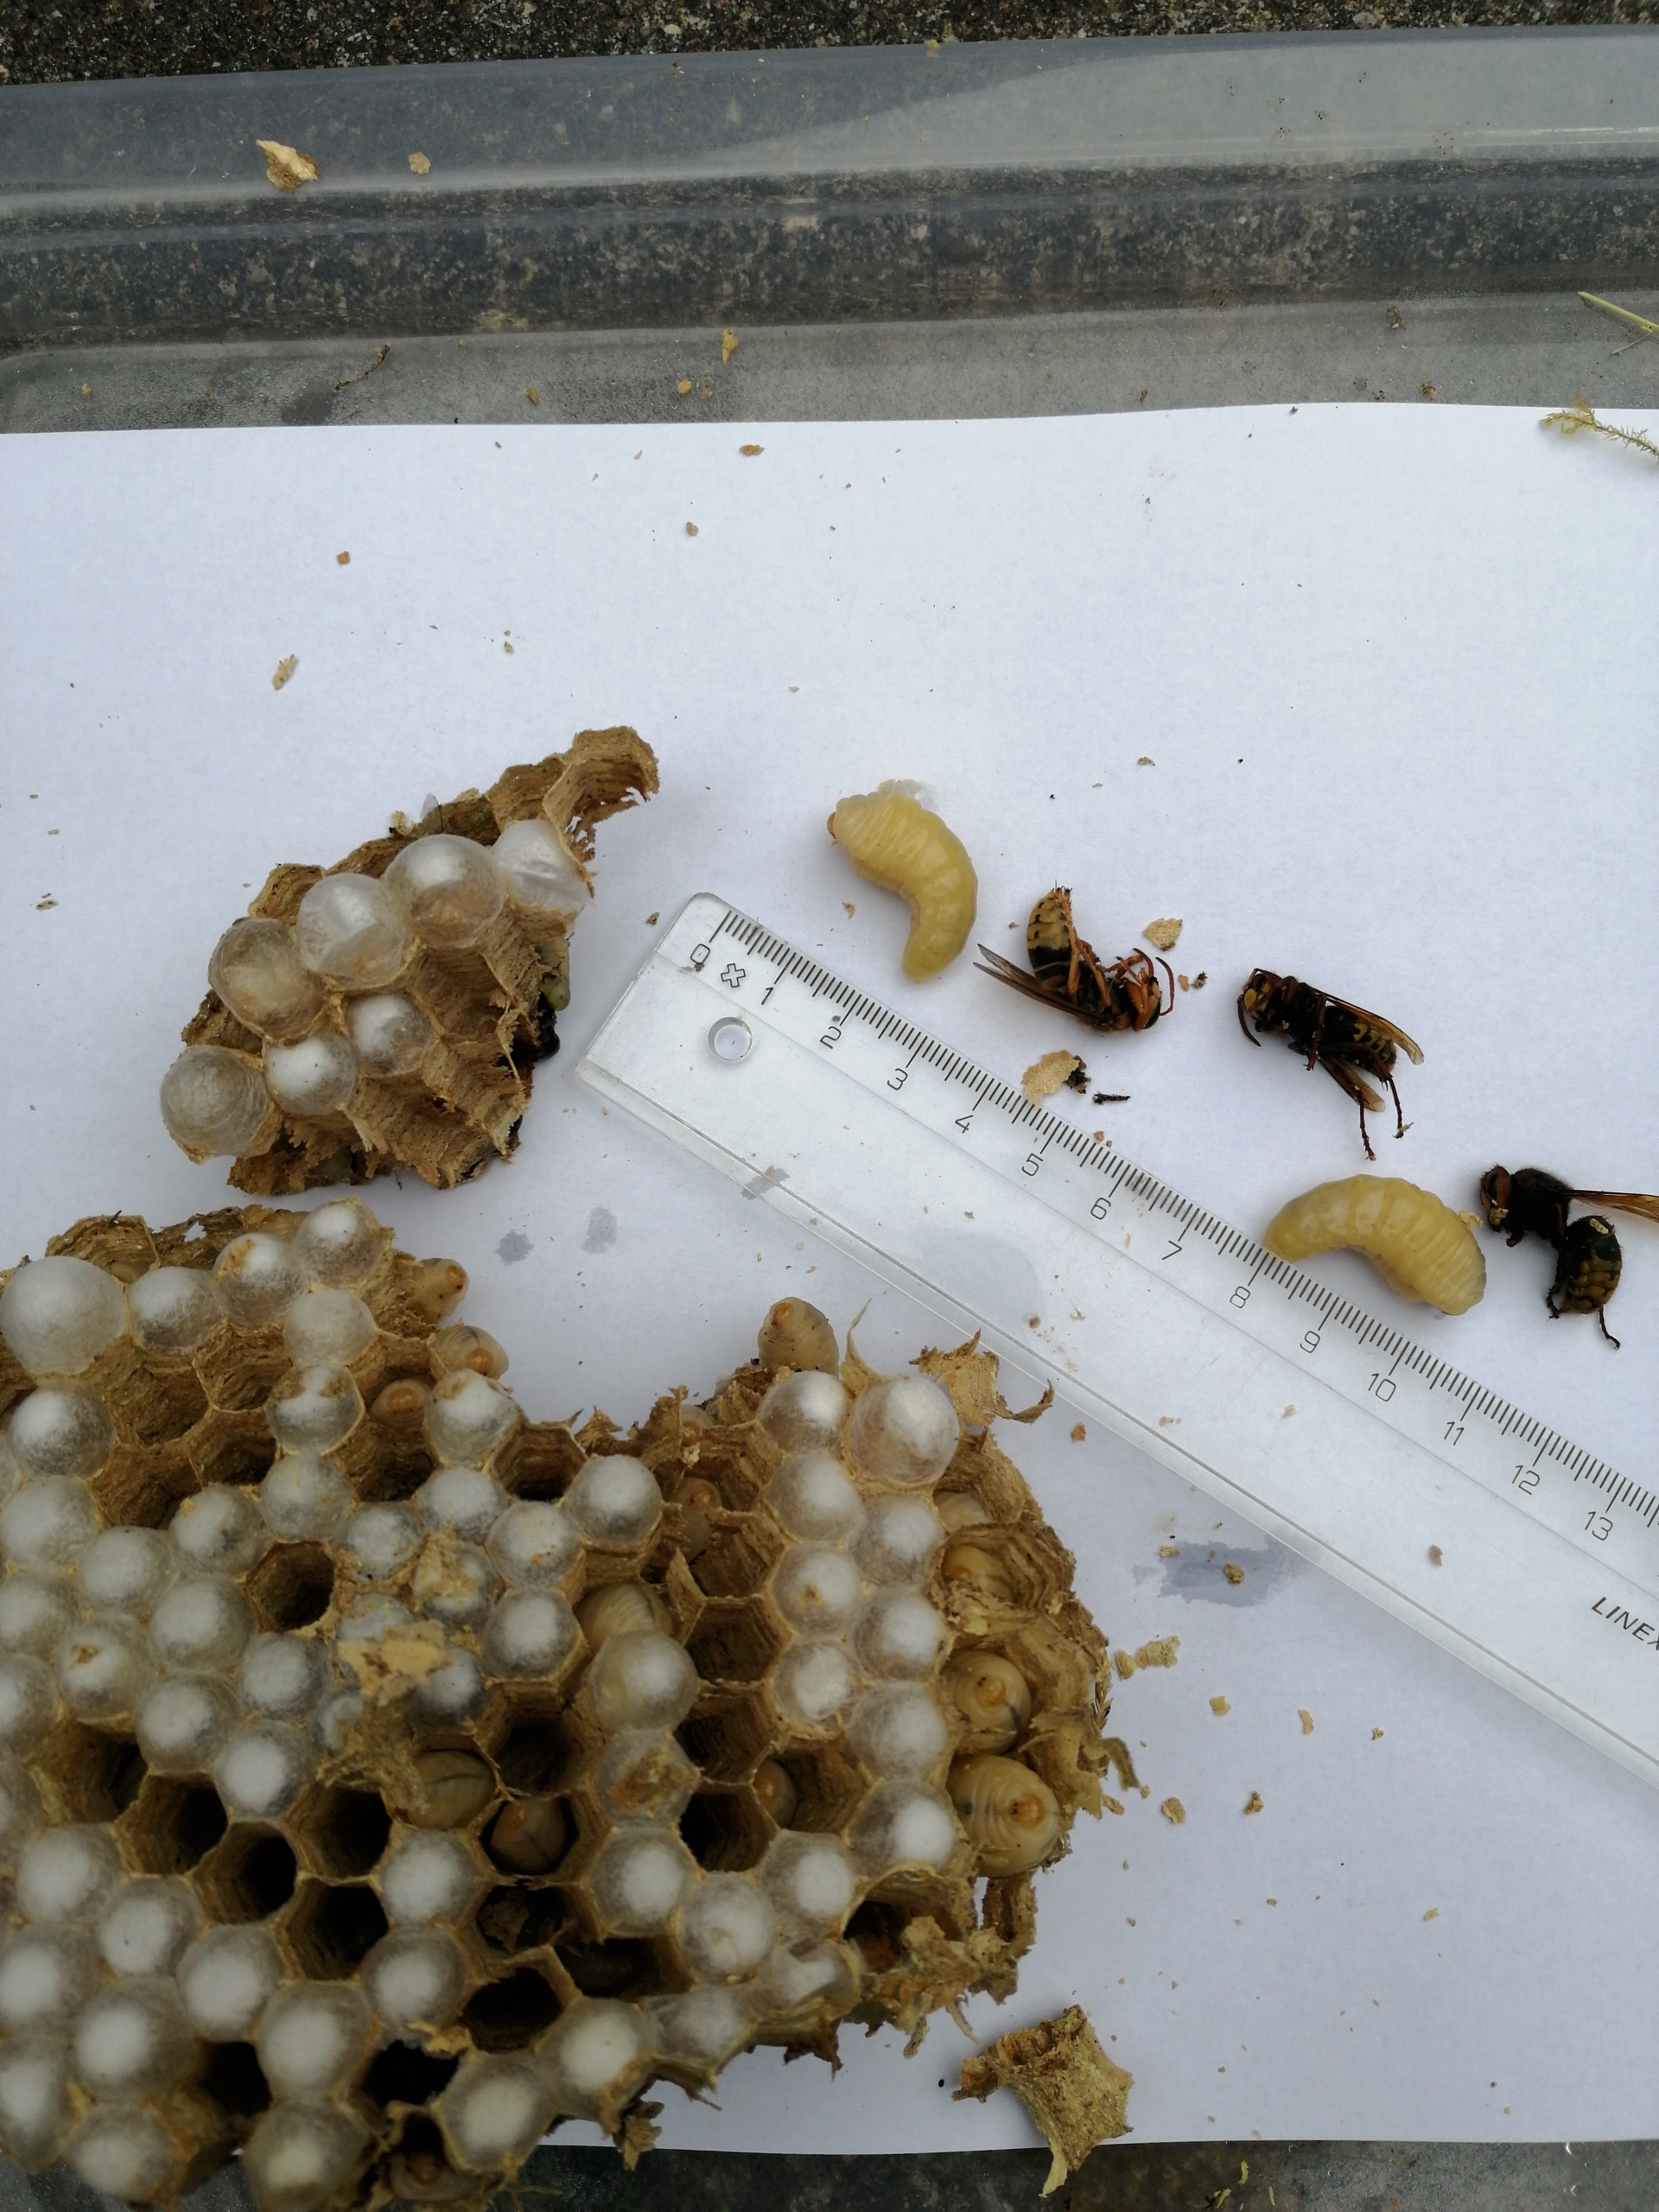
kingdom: Animalia
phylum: Arthropoda
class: Insecta
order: Hymenoptera
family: Vespidae
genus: Vespa
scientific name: Vespa crabro
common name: Stor gedehams
